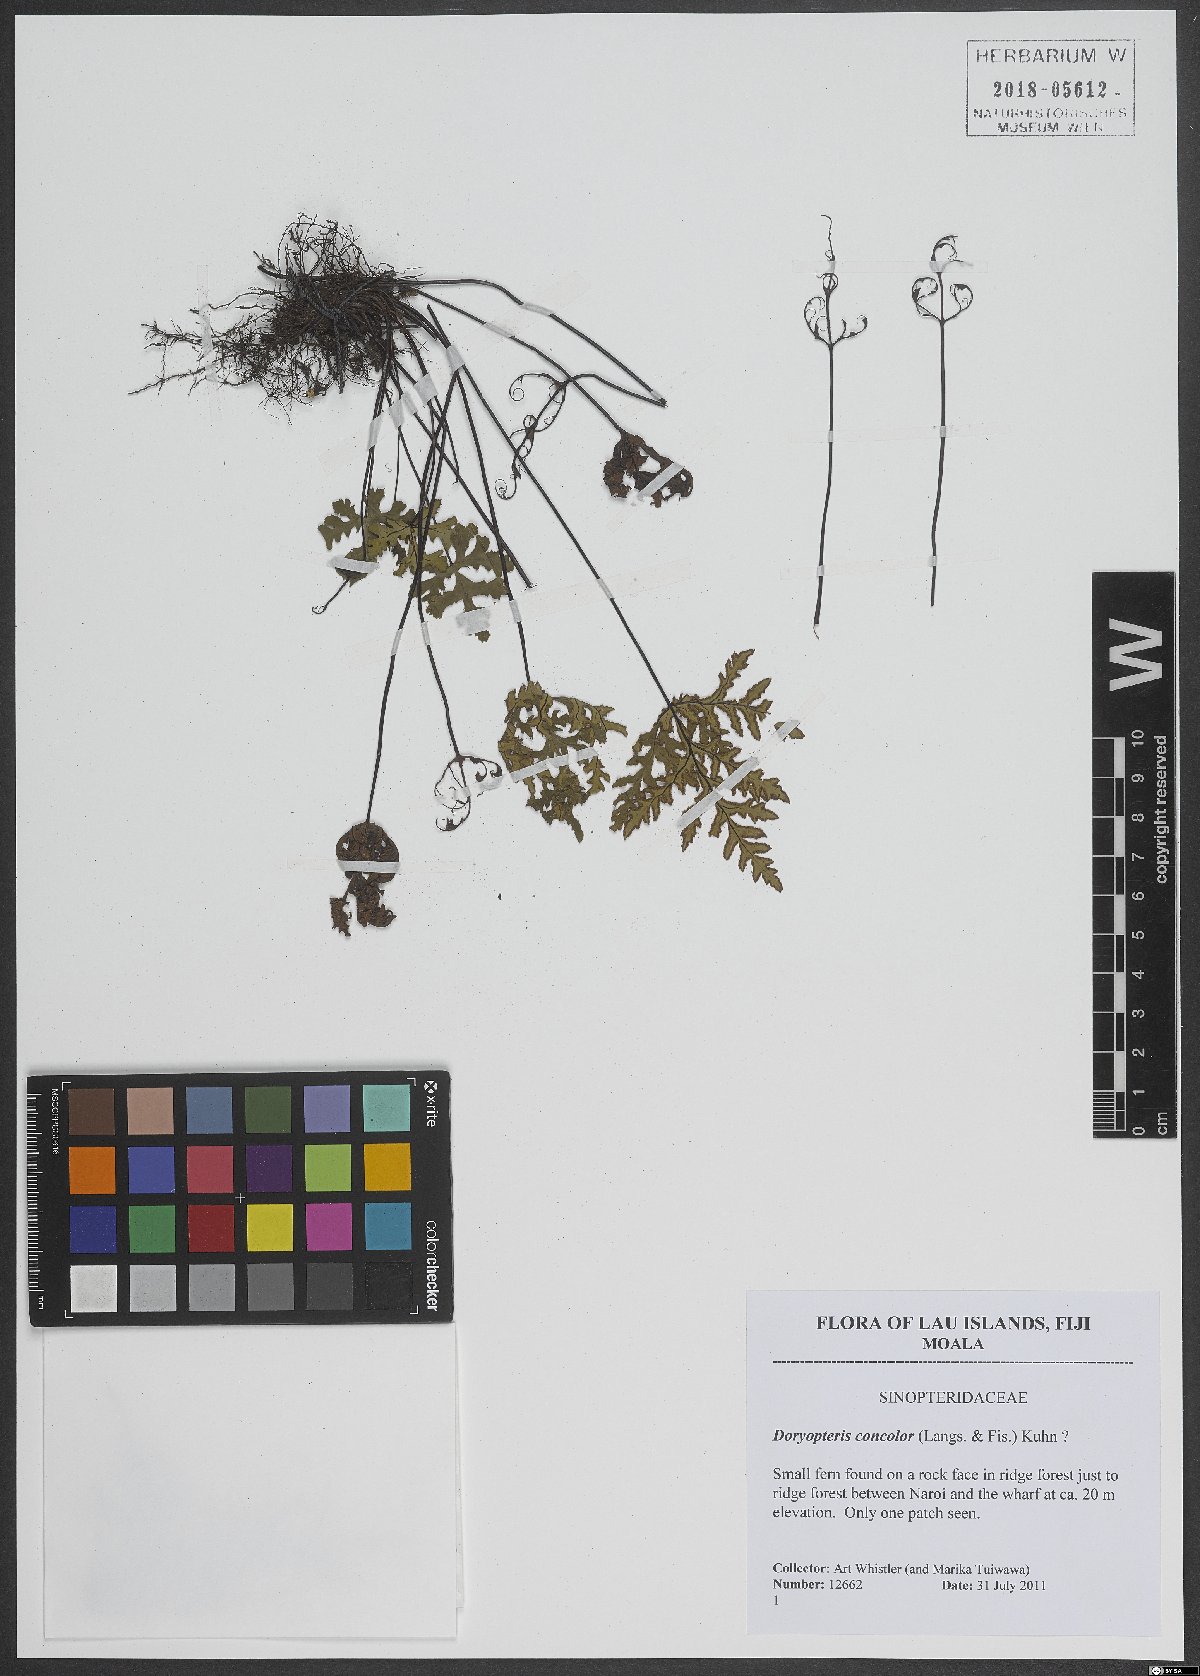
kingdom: Plantae
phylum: Tracheophyta
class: Polypodiopsida
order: Polypodiales
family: Pteridaceae
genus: Doryopteris
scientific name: Doryopteris concolor
